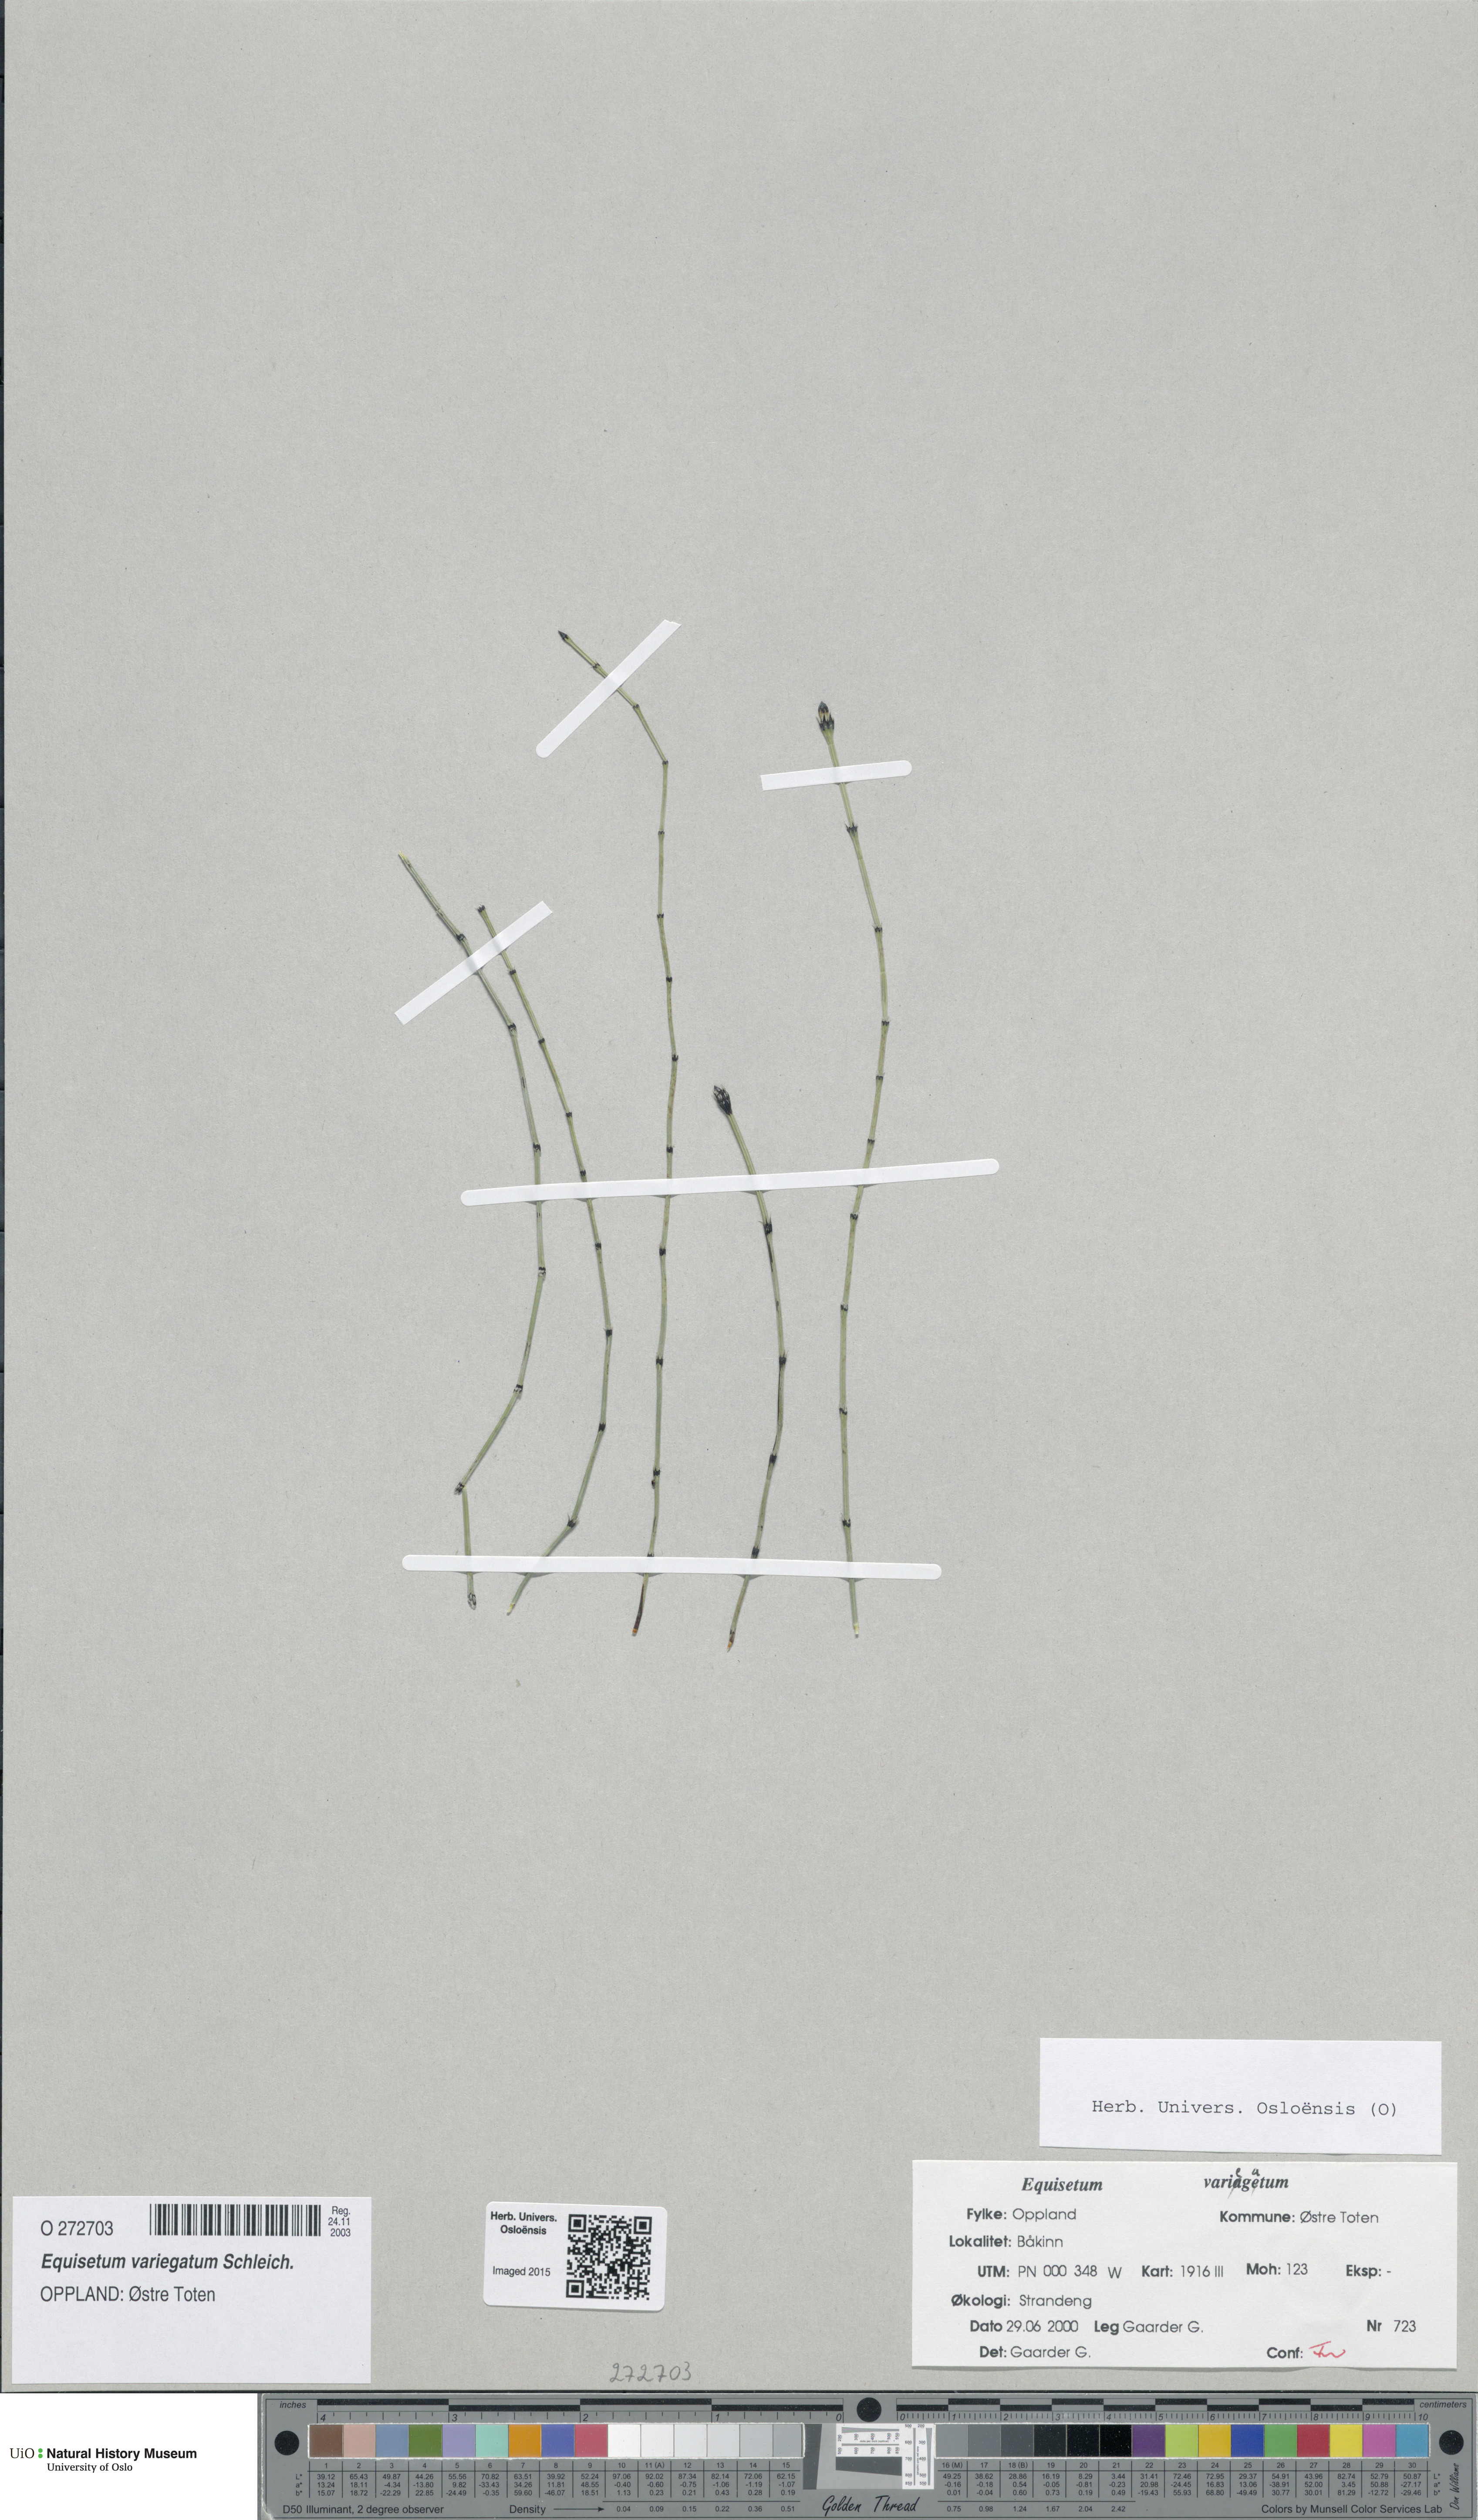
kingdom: Plantae
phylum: Tracheophyta
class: Polypodiopsida
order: Equisetales
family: Equisetaceae
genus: Equisetum
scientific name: Equisetum variegatum
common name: Variegated horsetail
